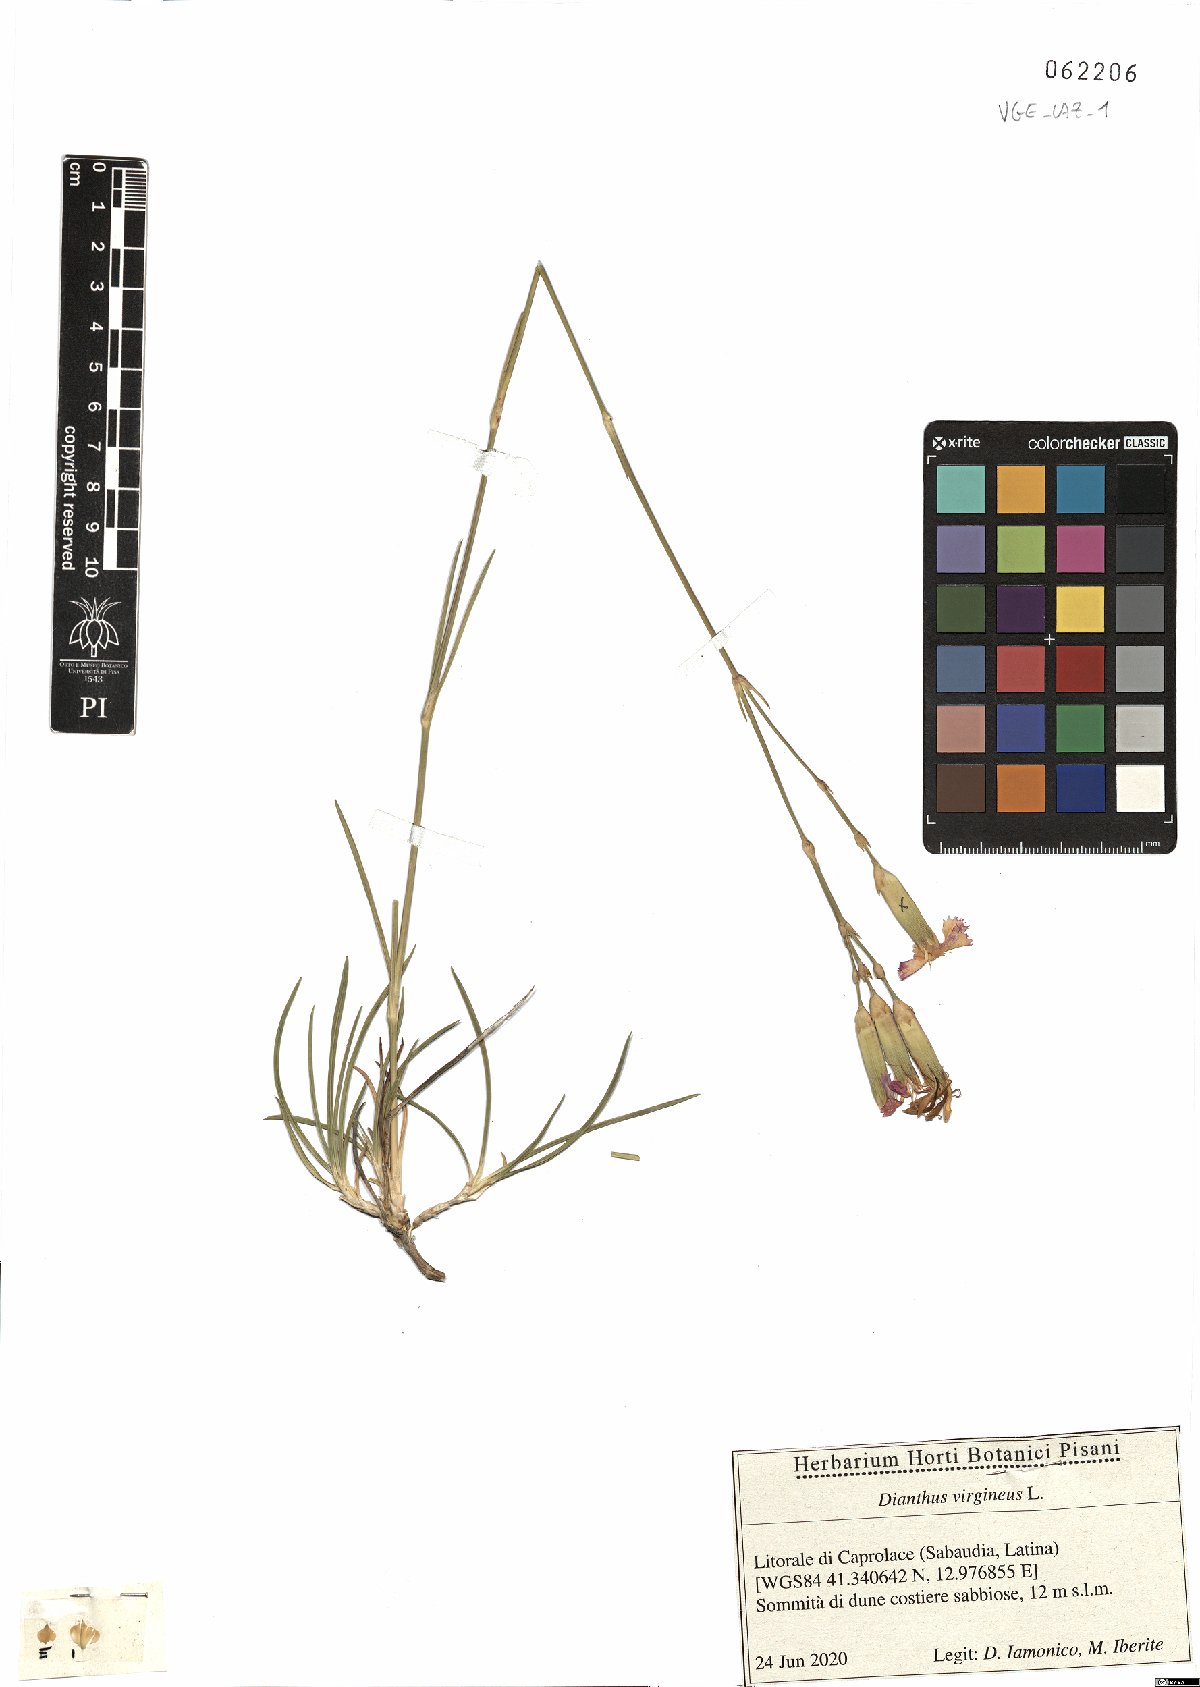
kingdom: Plantae
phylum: Tracheophyta
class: Magnoliopsida
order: Caryophyllales
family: Caryophyllaceae
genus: Dianthus
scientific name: Dianthus virgineus
